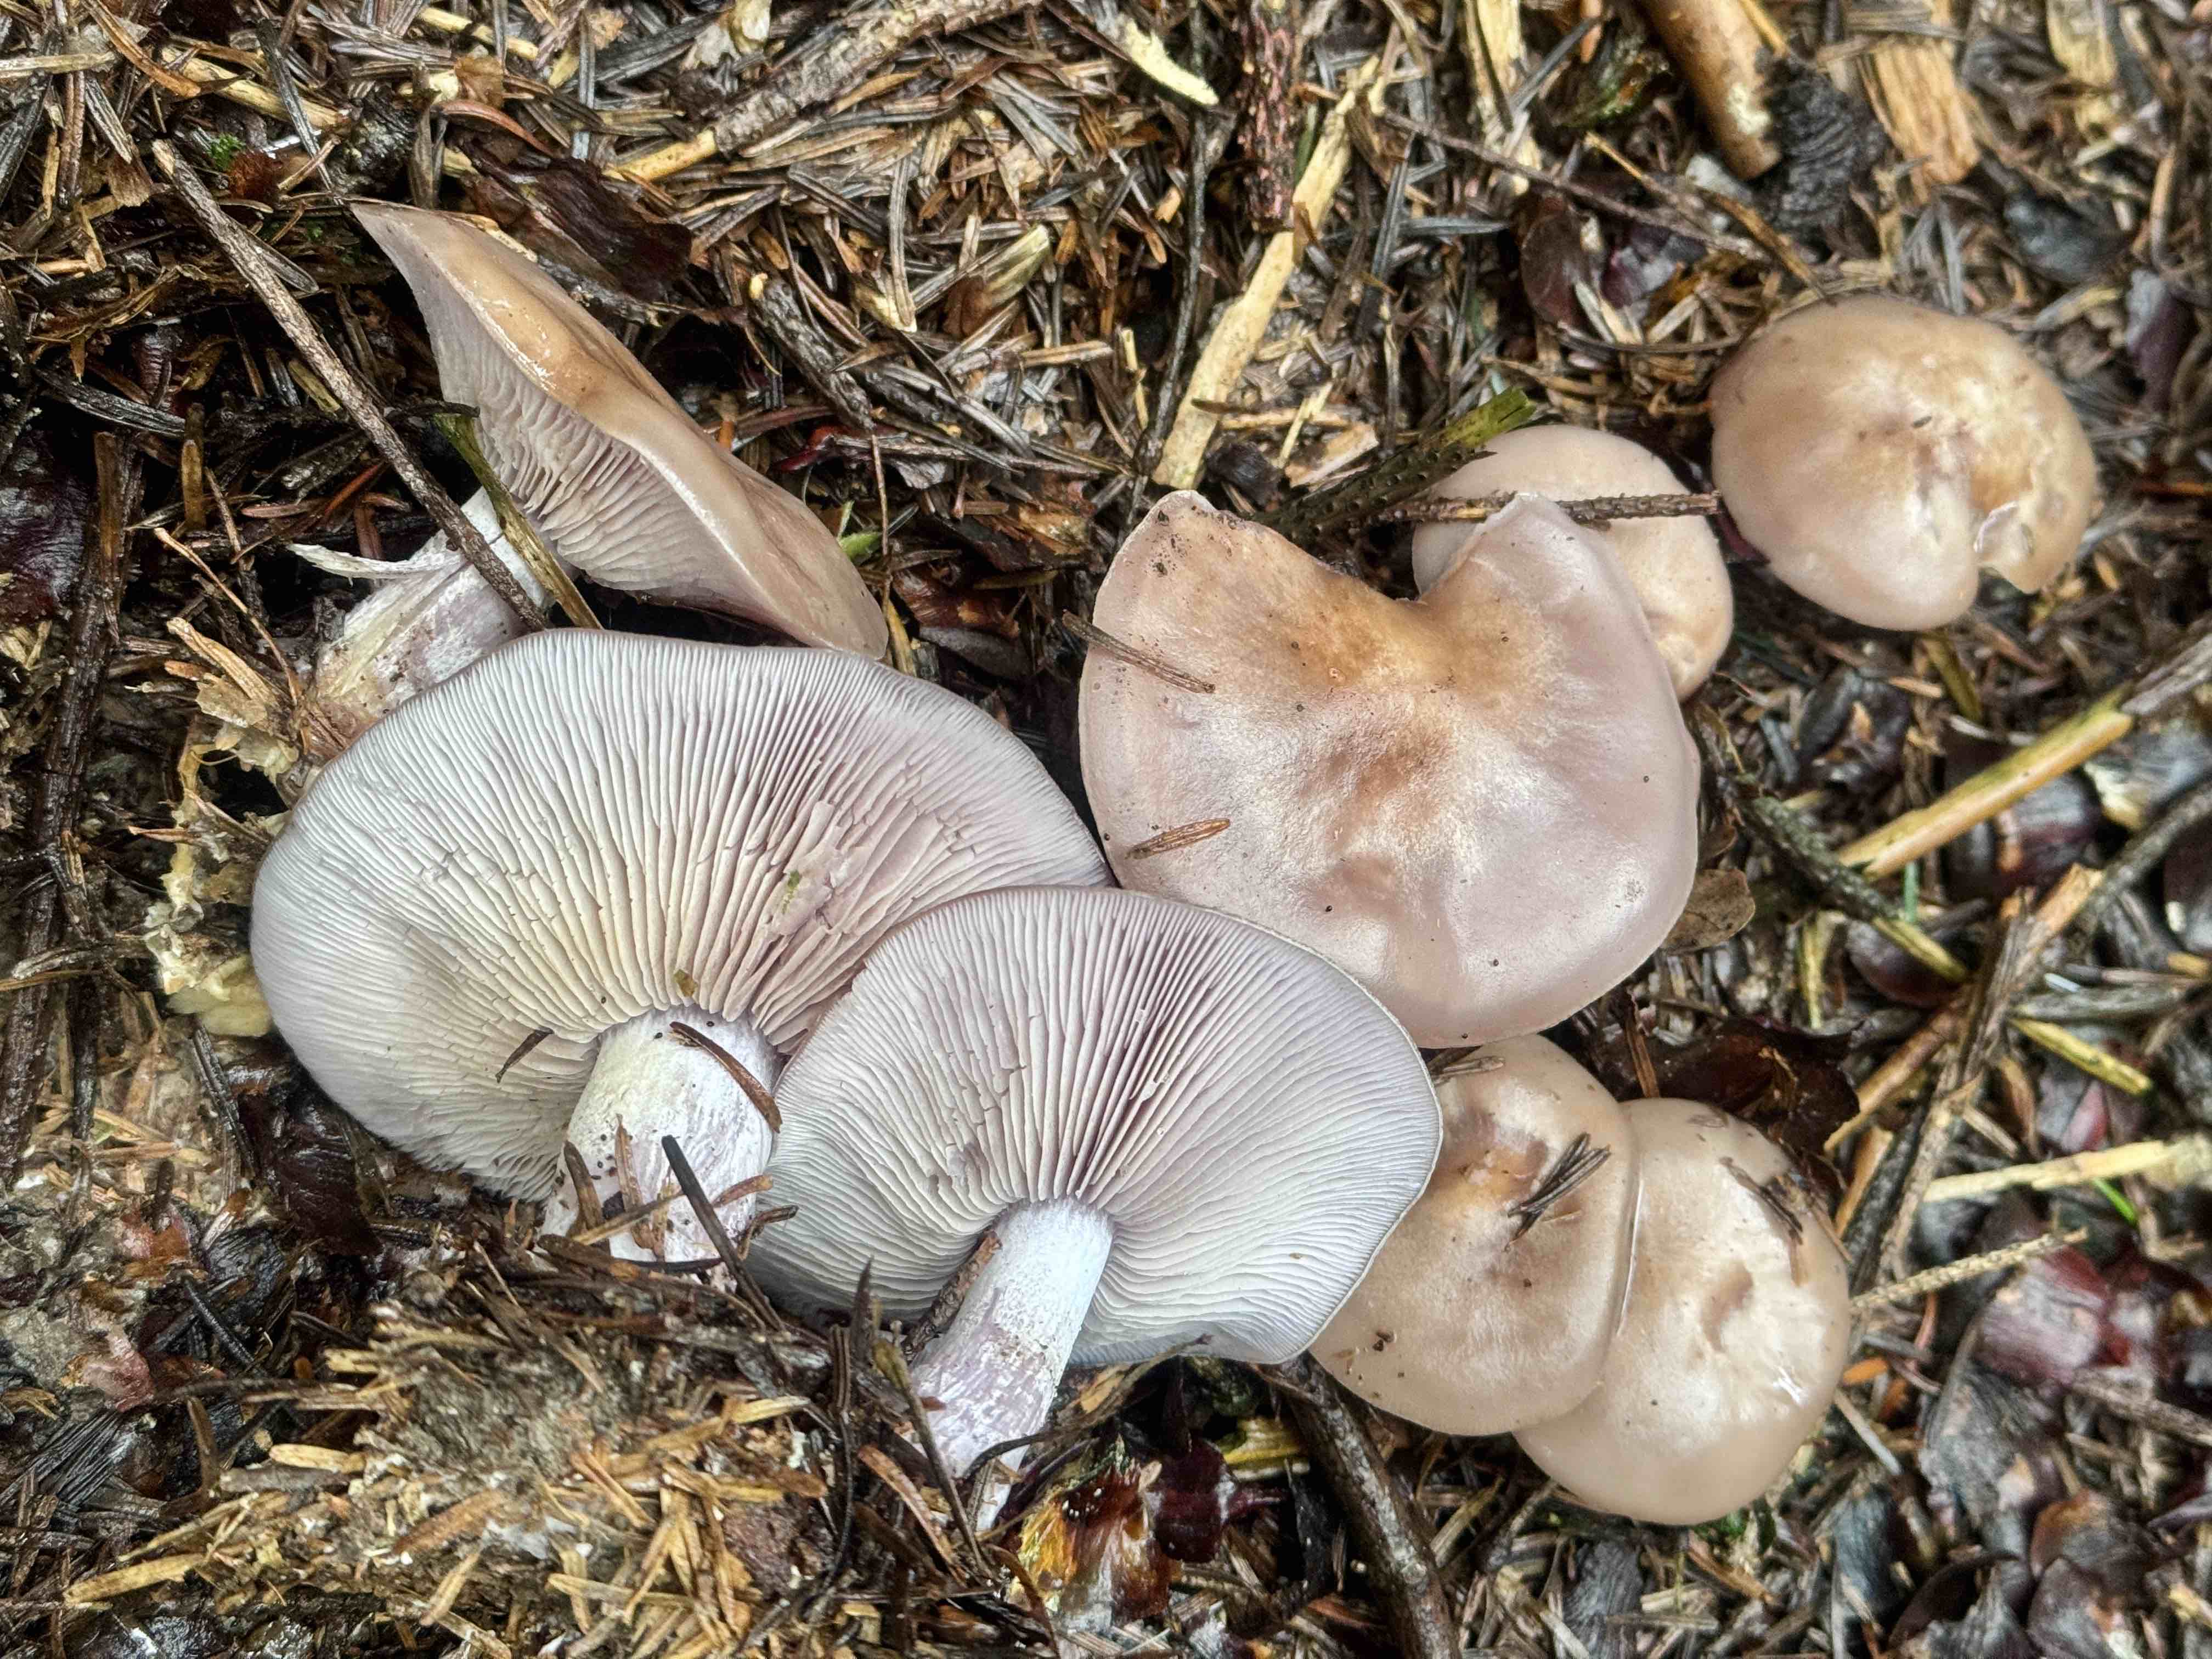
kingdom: Fungi
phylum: Basidiomycota
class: Agaricomycetes
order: Agaricales
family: Tricholomataceae
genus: Lepista
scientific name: Lepista nuda
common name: violet hekseringshat
